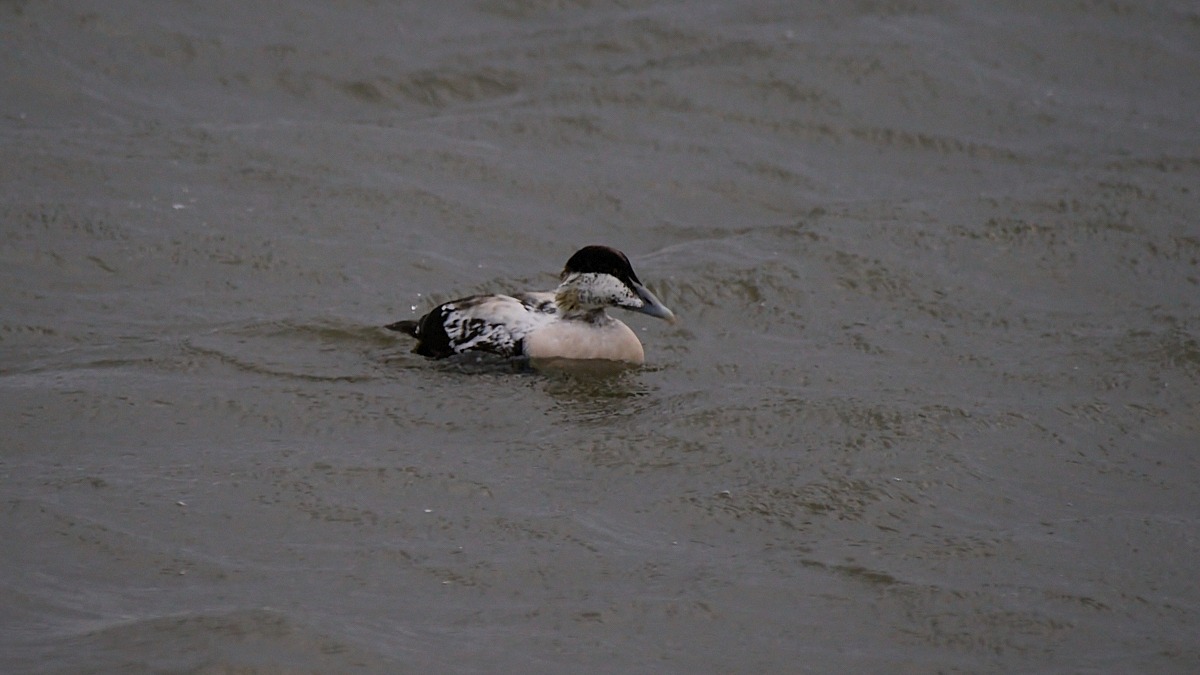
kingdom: Animalia
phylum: Chordata
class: Aves
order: Anseriformes
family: Anatidae
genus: Somateria
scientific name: Somateria mollissima
